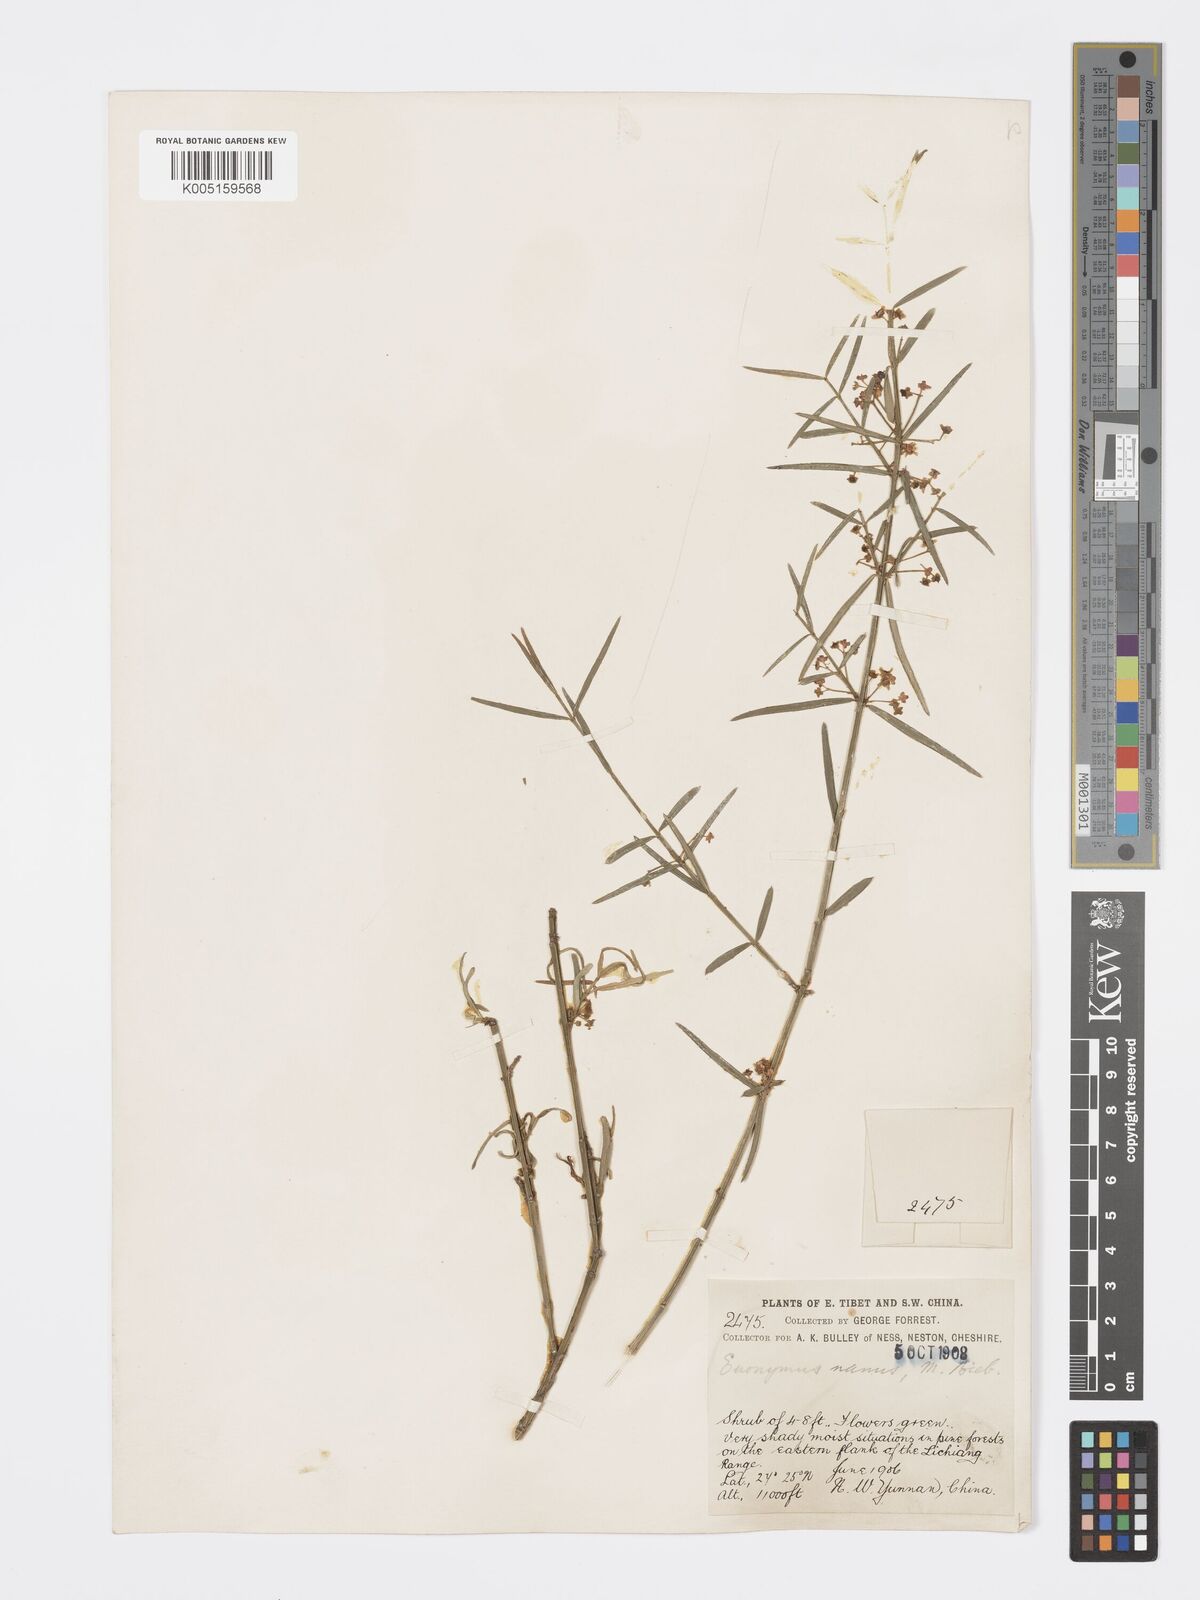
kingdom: Plantae
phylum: Tracheophyta
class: Magnoliopsida
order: Celastrales
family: Celastraceae
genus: Euonymus
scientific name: Euonymus lichiangensis
